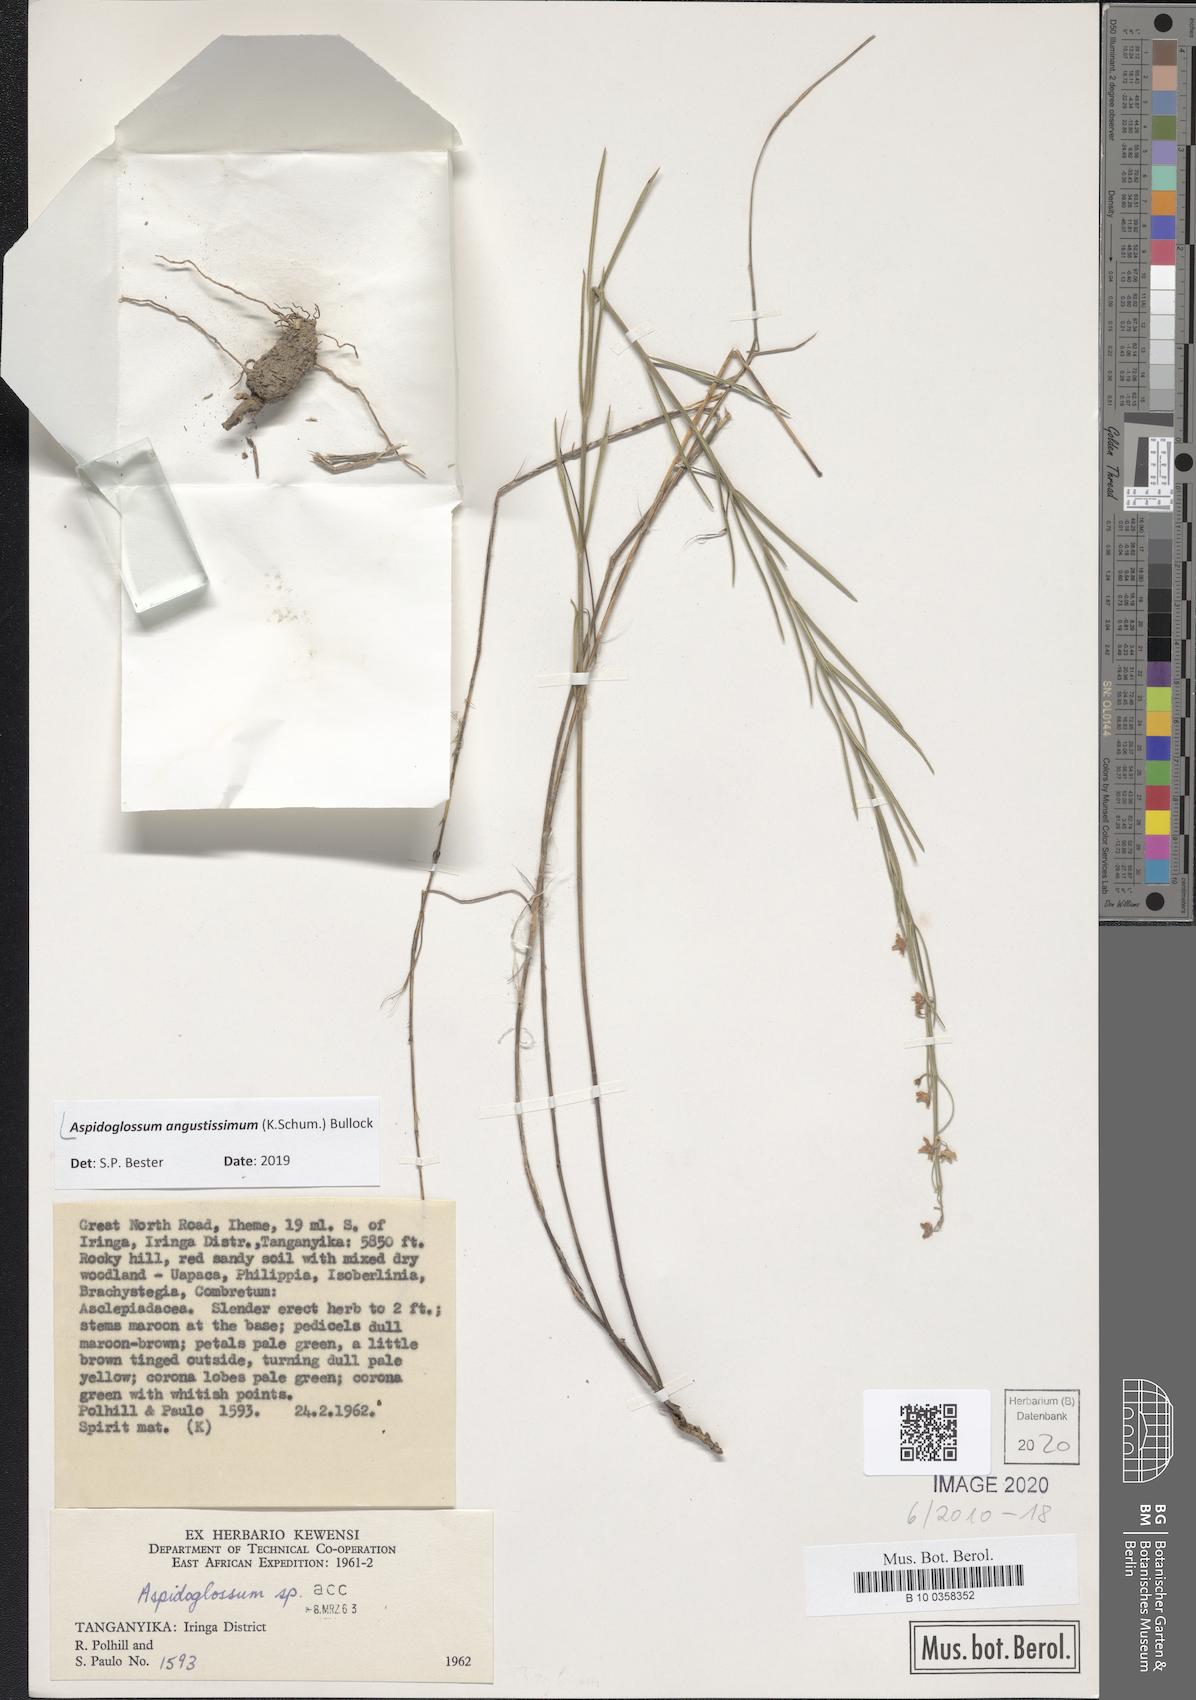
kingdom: Plantae
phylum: Tracheophyta
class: Magnoliopsida
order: Gentianales
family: Apocynaceae
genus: Aspidoglossum
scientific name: Aspidoglossum angustissimum
